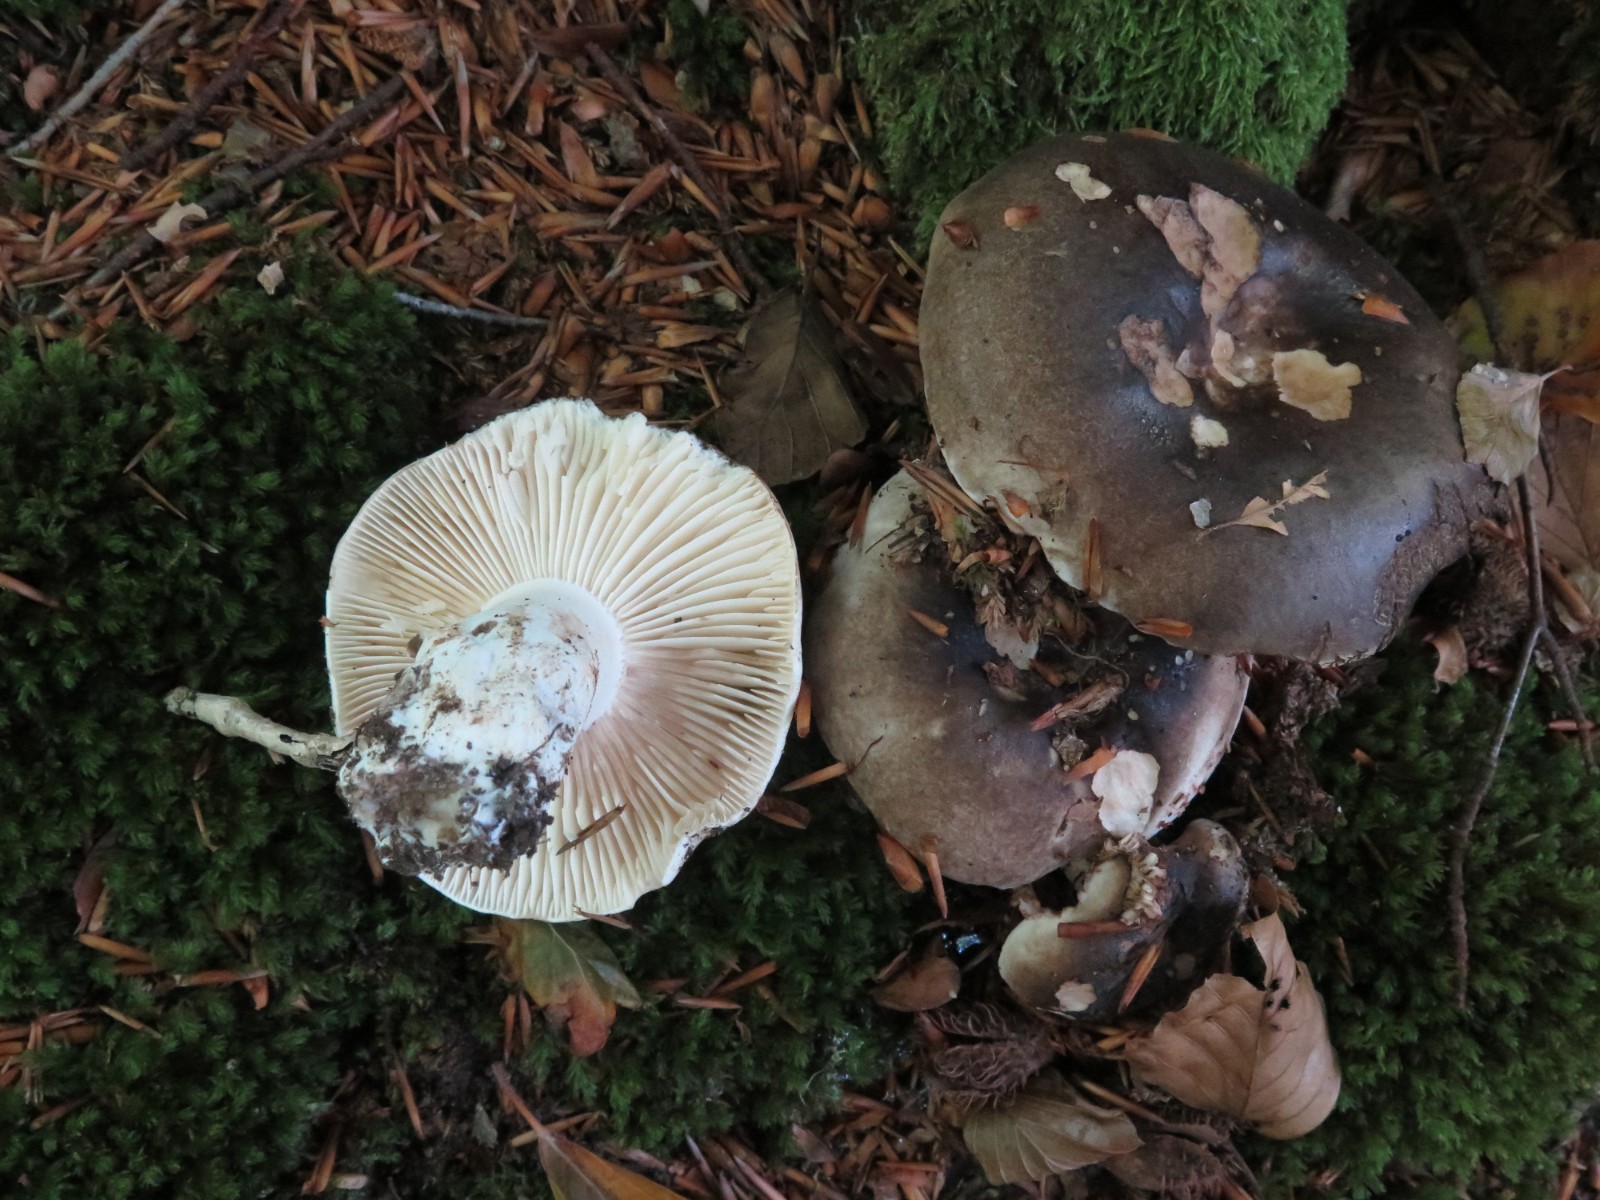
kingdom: Fungi
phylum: Basidiomycota
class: Agaricomycetes
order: Russulales
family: Russulaceae
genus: Russula
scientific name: Russula adusta
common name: sværtende skørhat
